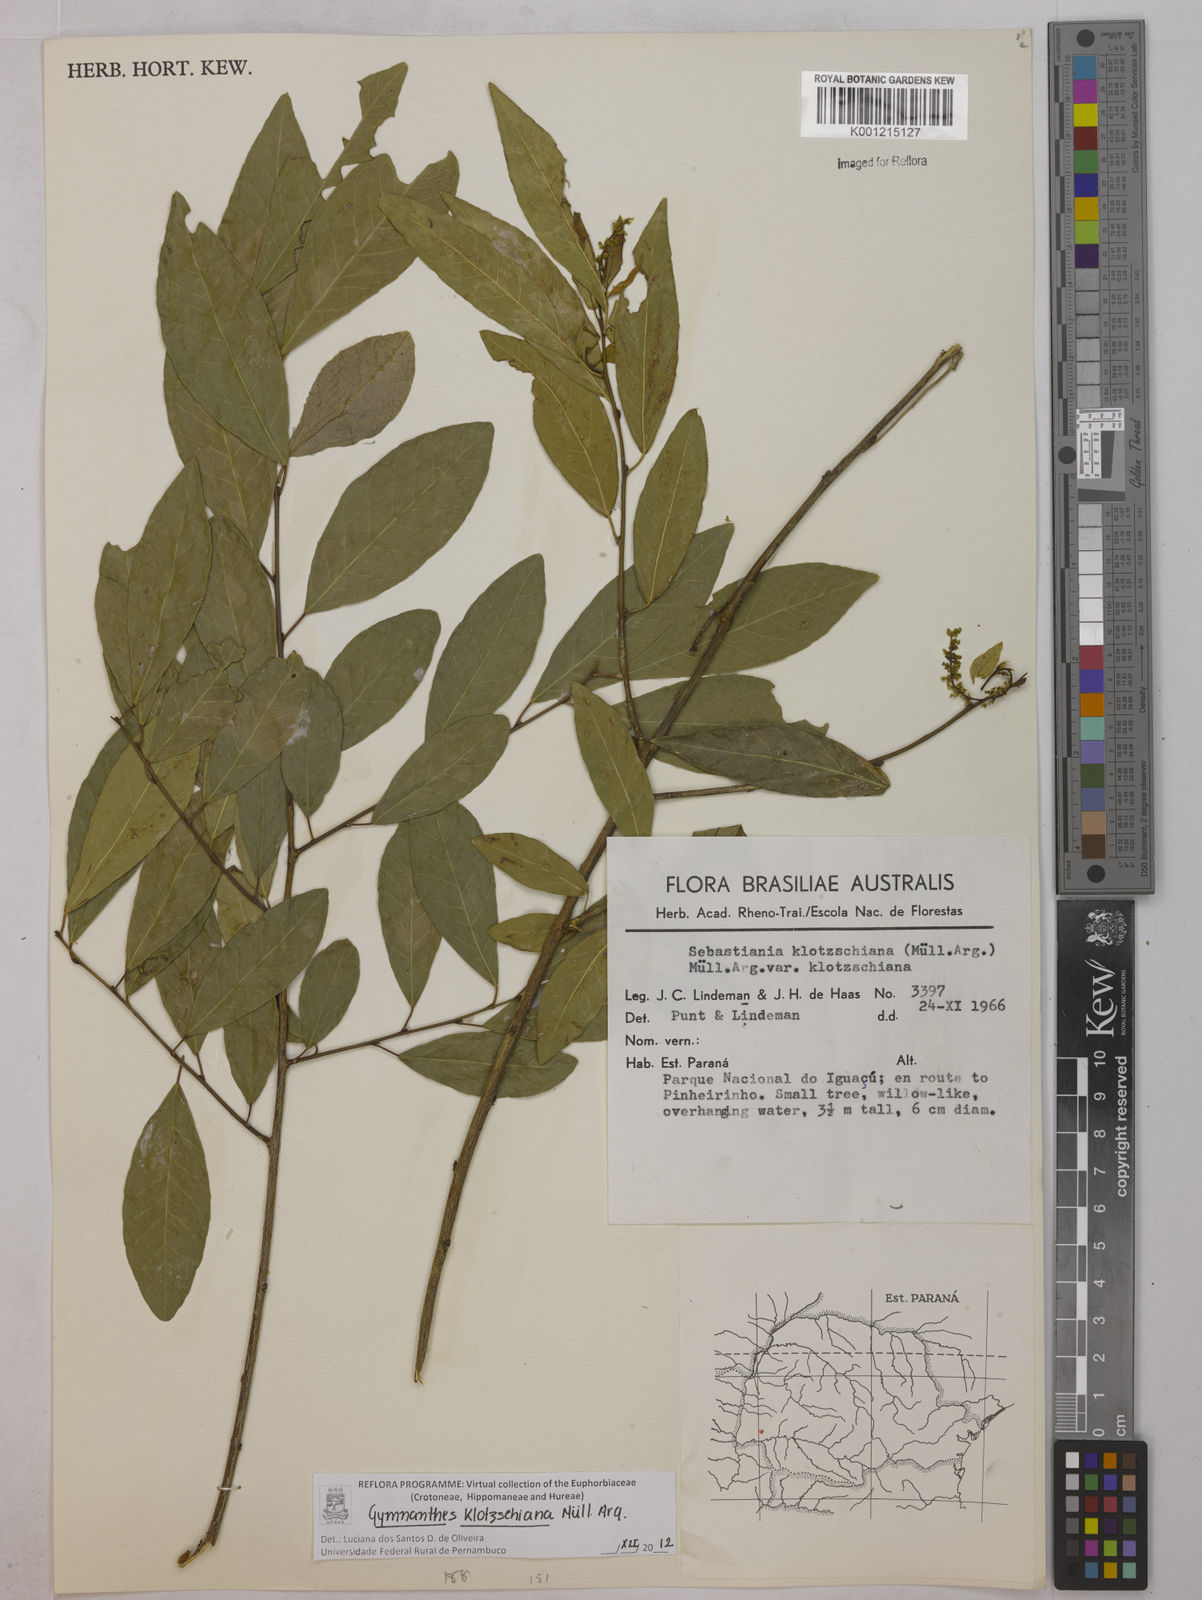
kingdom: Plantae
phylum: Tracheophyta
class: Magnoliopsida
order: Malpighiales
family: Euphorbiaceae
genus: Gymnanthes
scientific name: Gymnanthes
